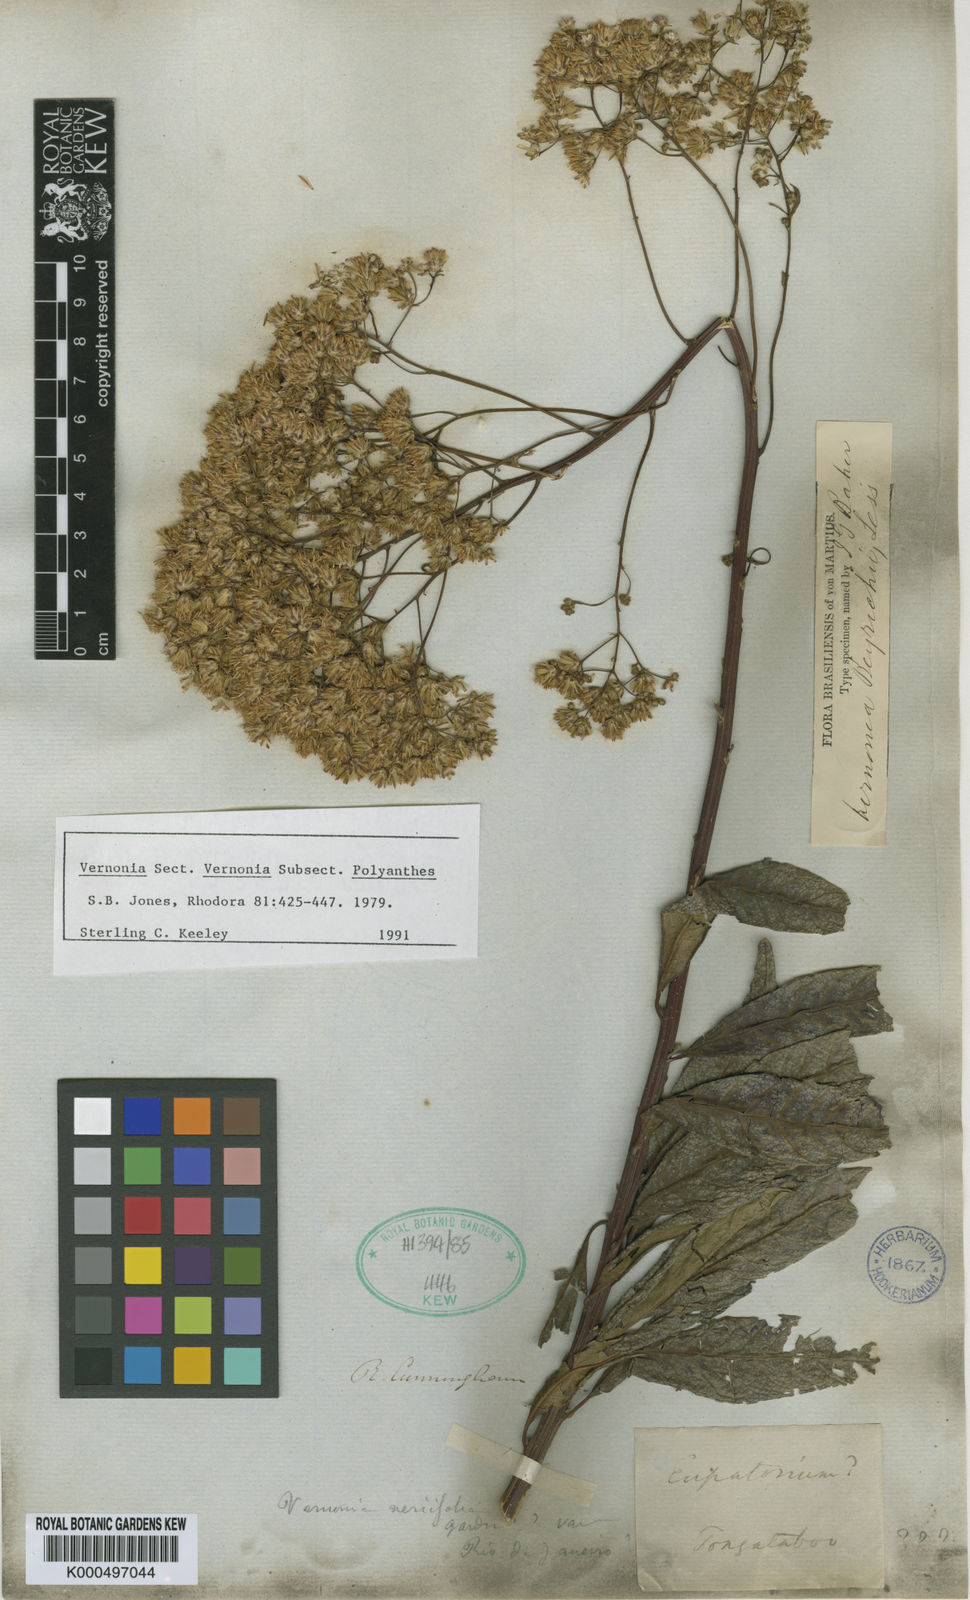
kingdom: Plantae
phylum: Tracheophyta
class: Magnoliopsida
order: Asterales
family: Asteraceae
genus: Vernonanthura
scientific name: Vernonanthura beyrichii
